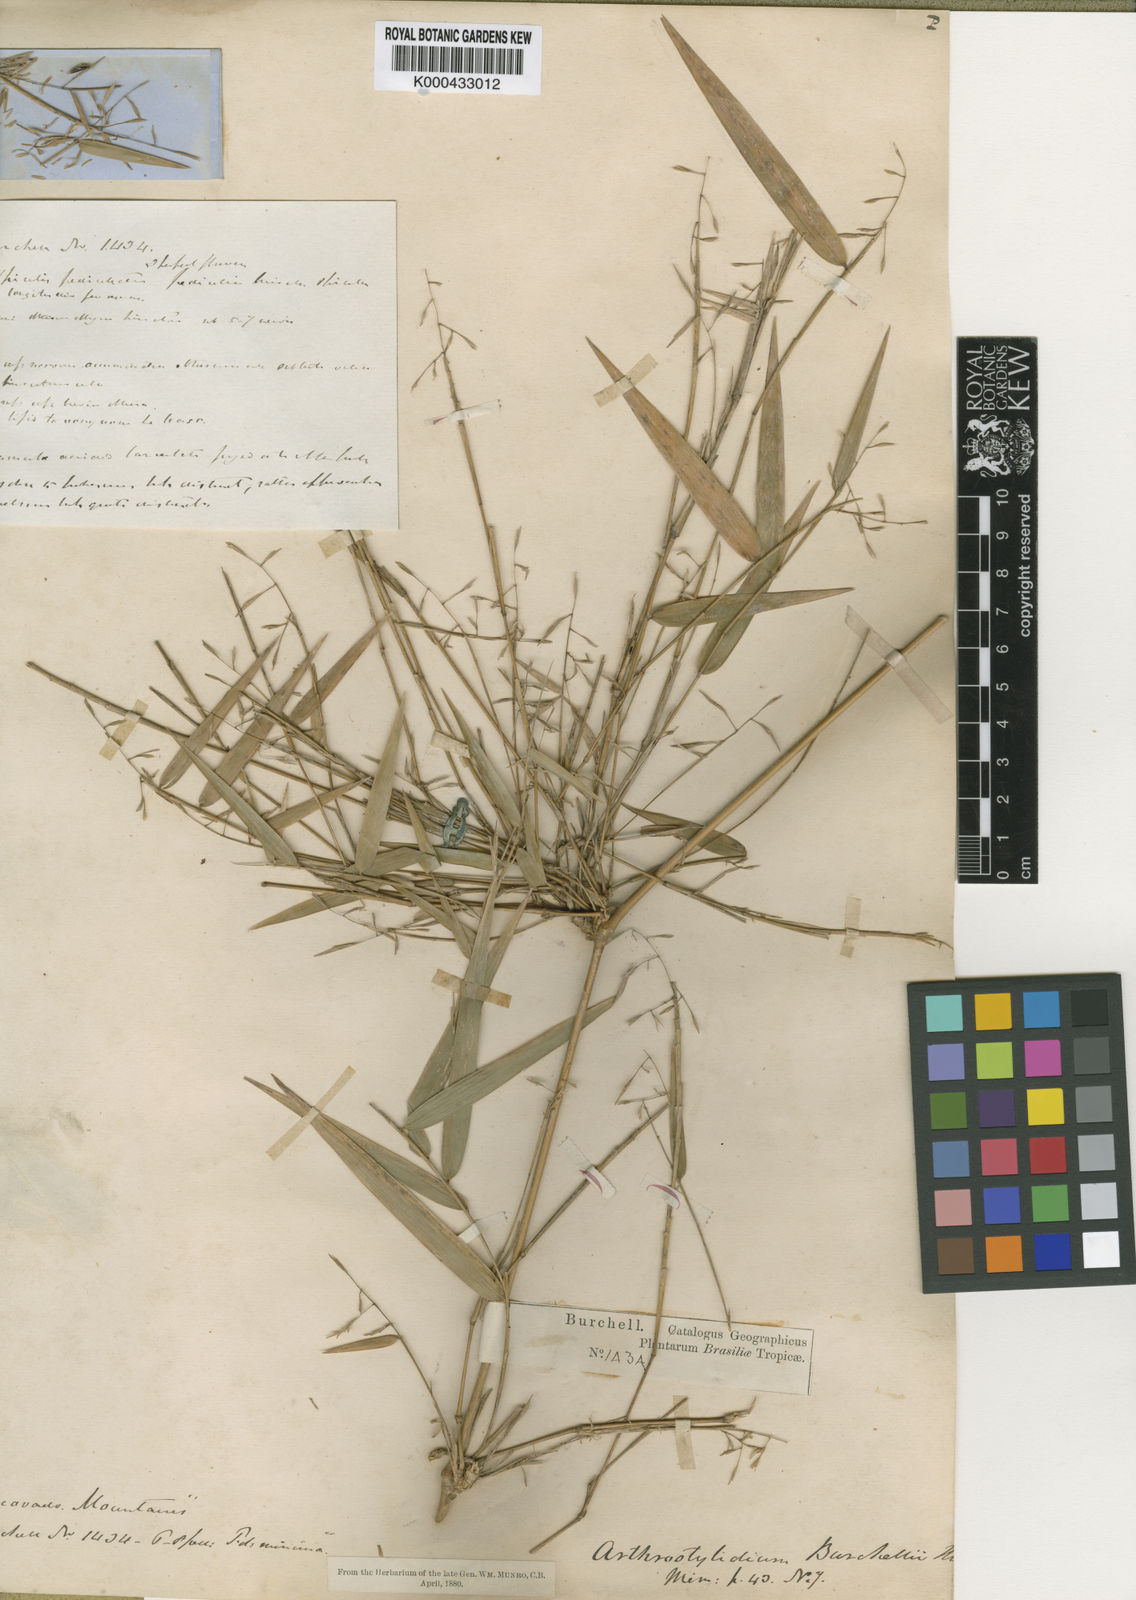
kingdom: Plantae
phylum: Tracheophyta
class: Liliopsida
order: Poales
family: Poaceae
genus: Colanthelia
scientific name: Colanthelia burchellii
